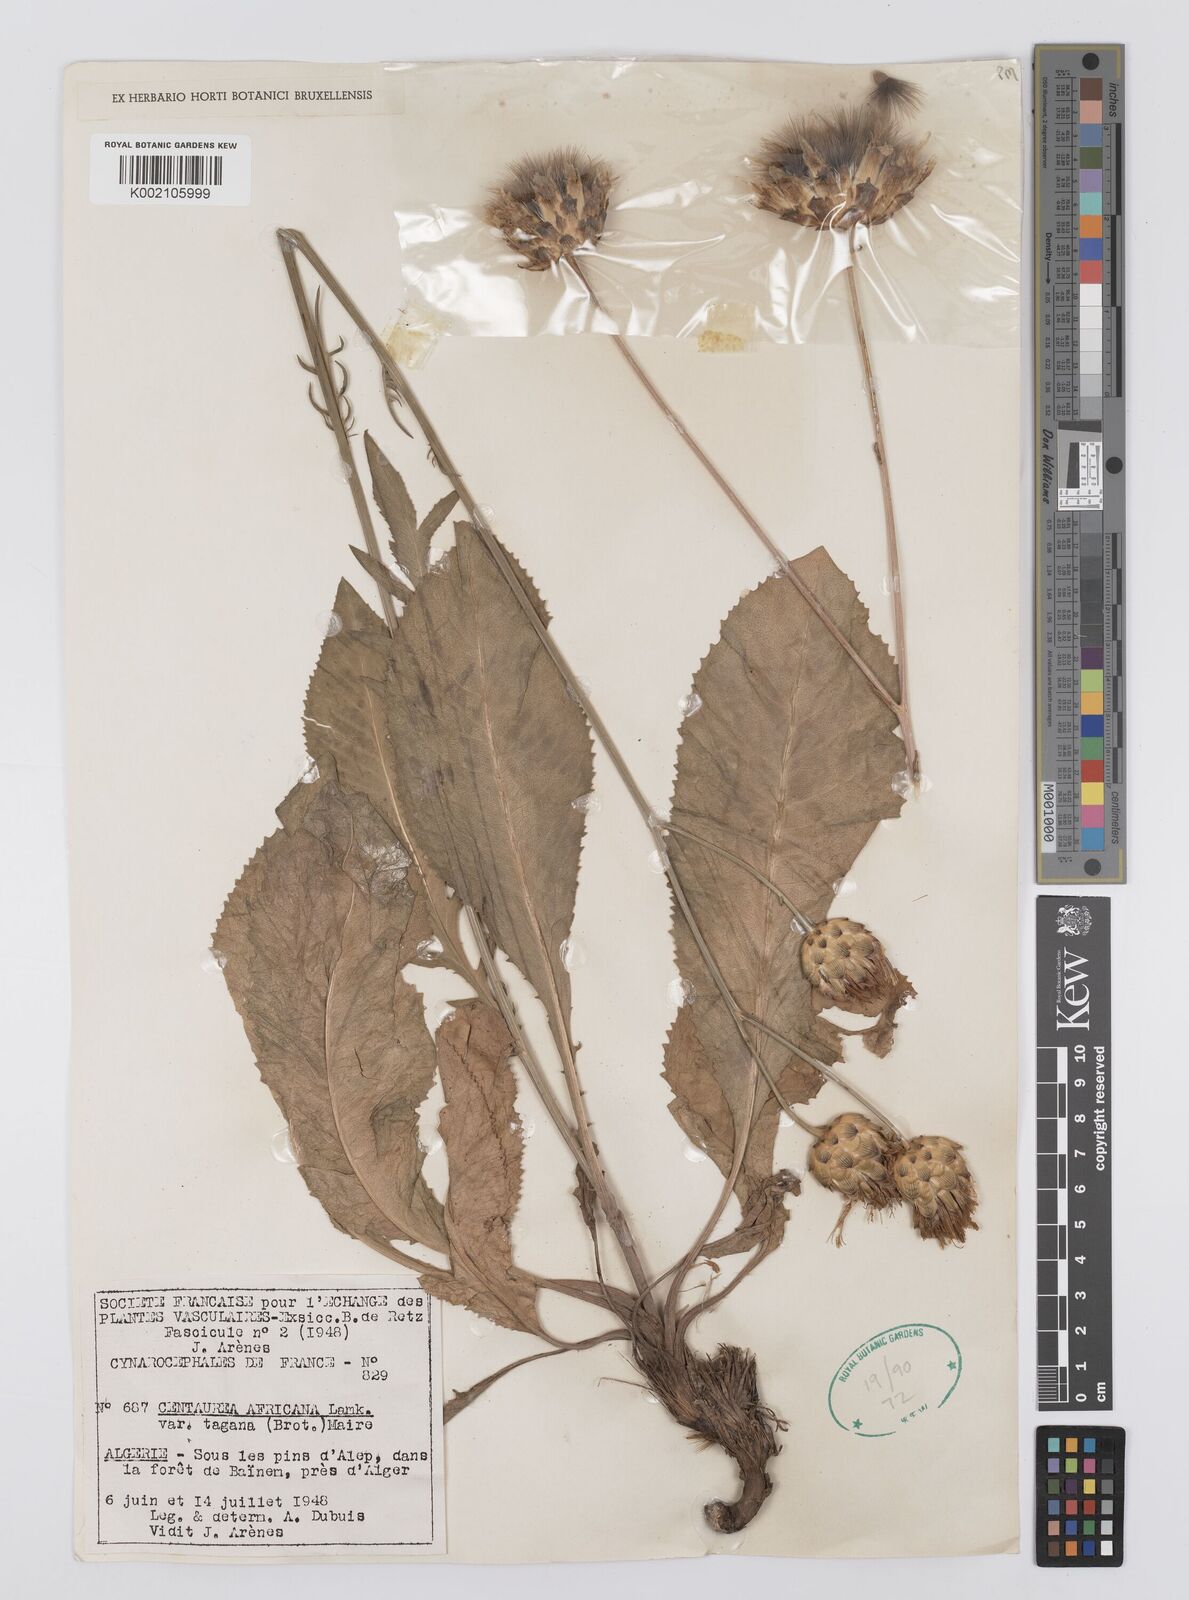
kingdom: Plantae
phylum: Tracheophyta
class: Magnoliopsida
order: Asterales
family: Asteraceae
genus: Rhaponticoides
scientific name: Rhaponticoides africana
